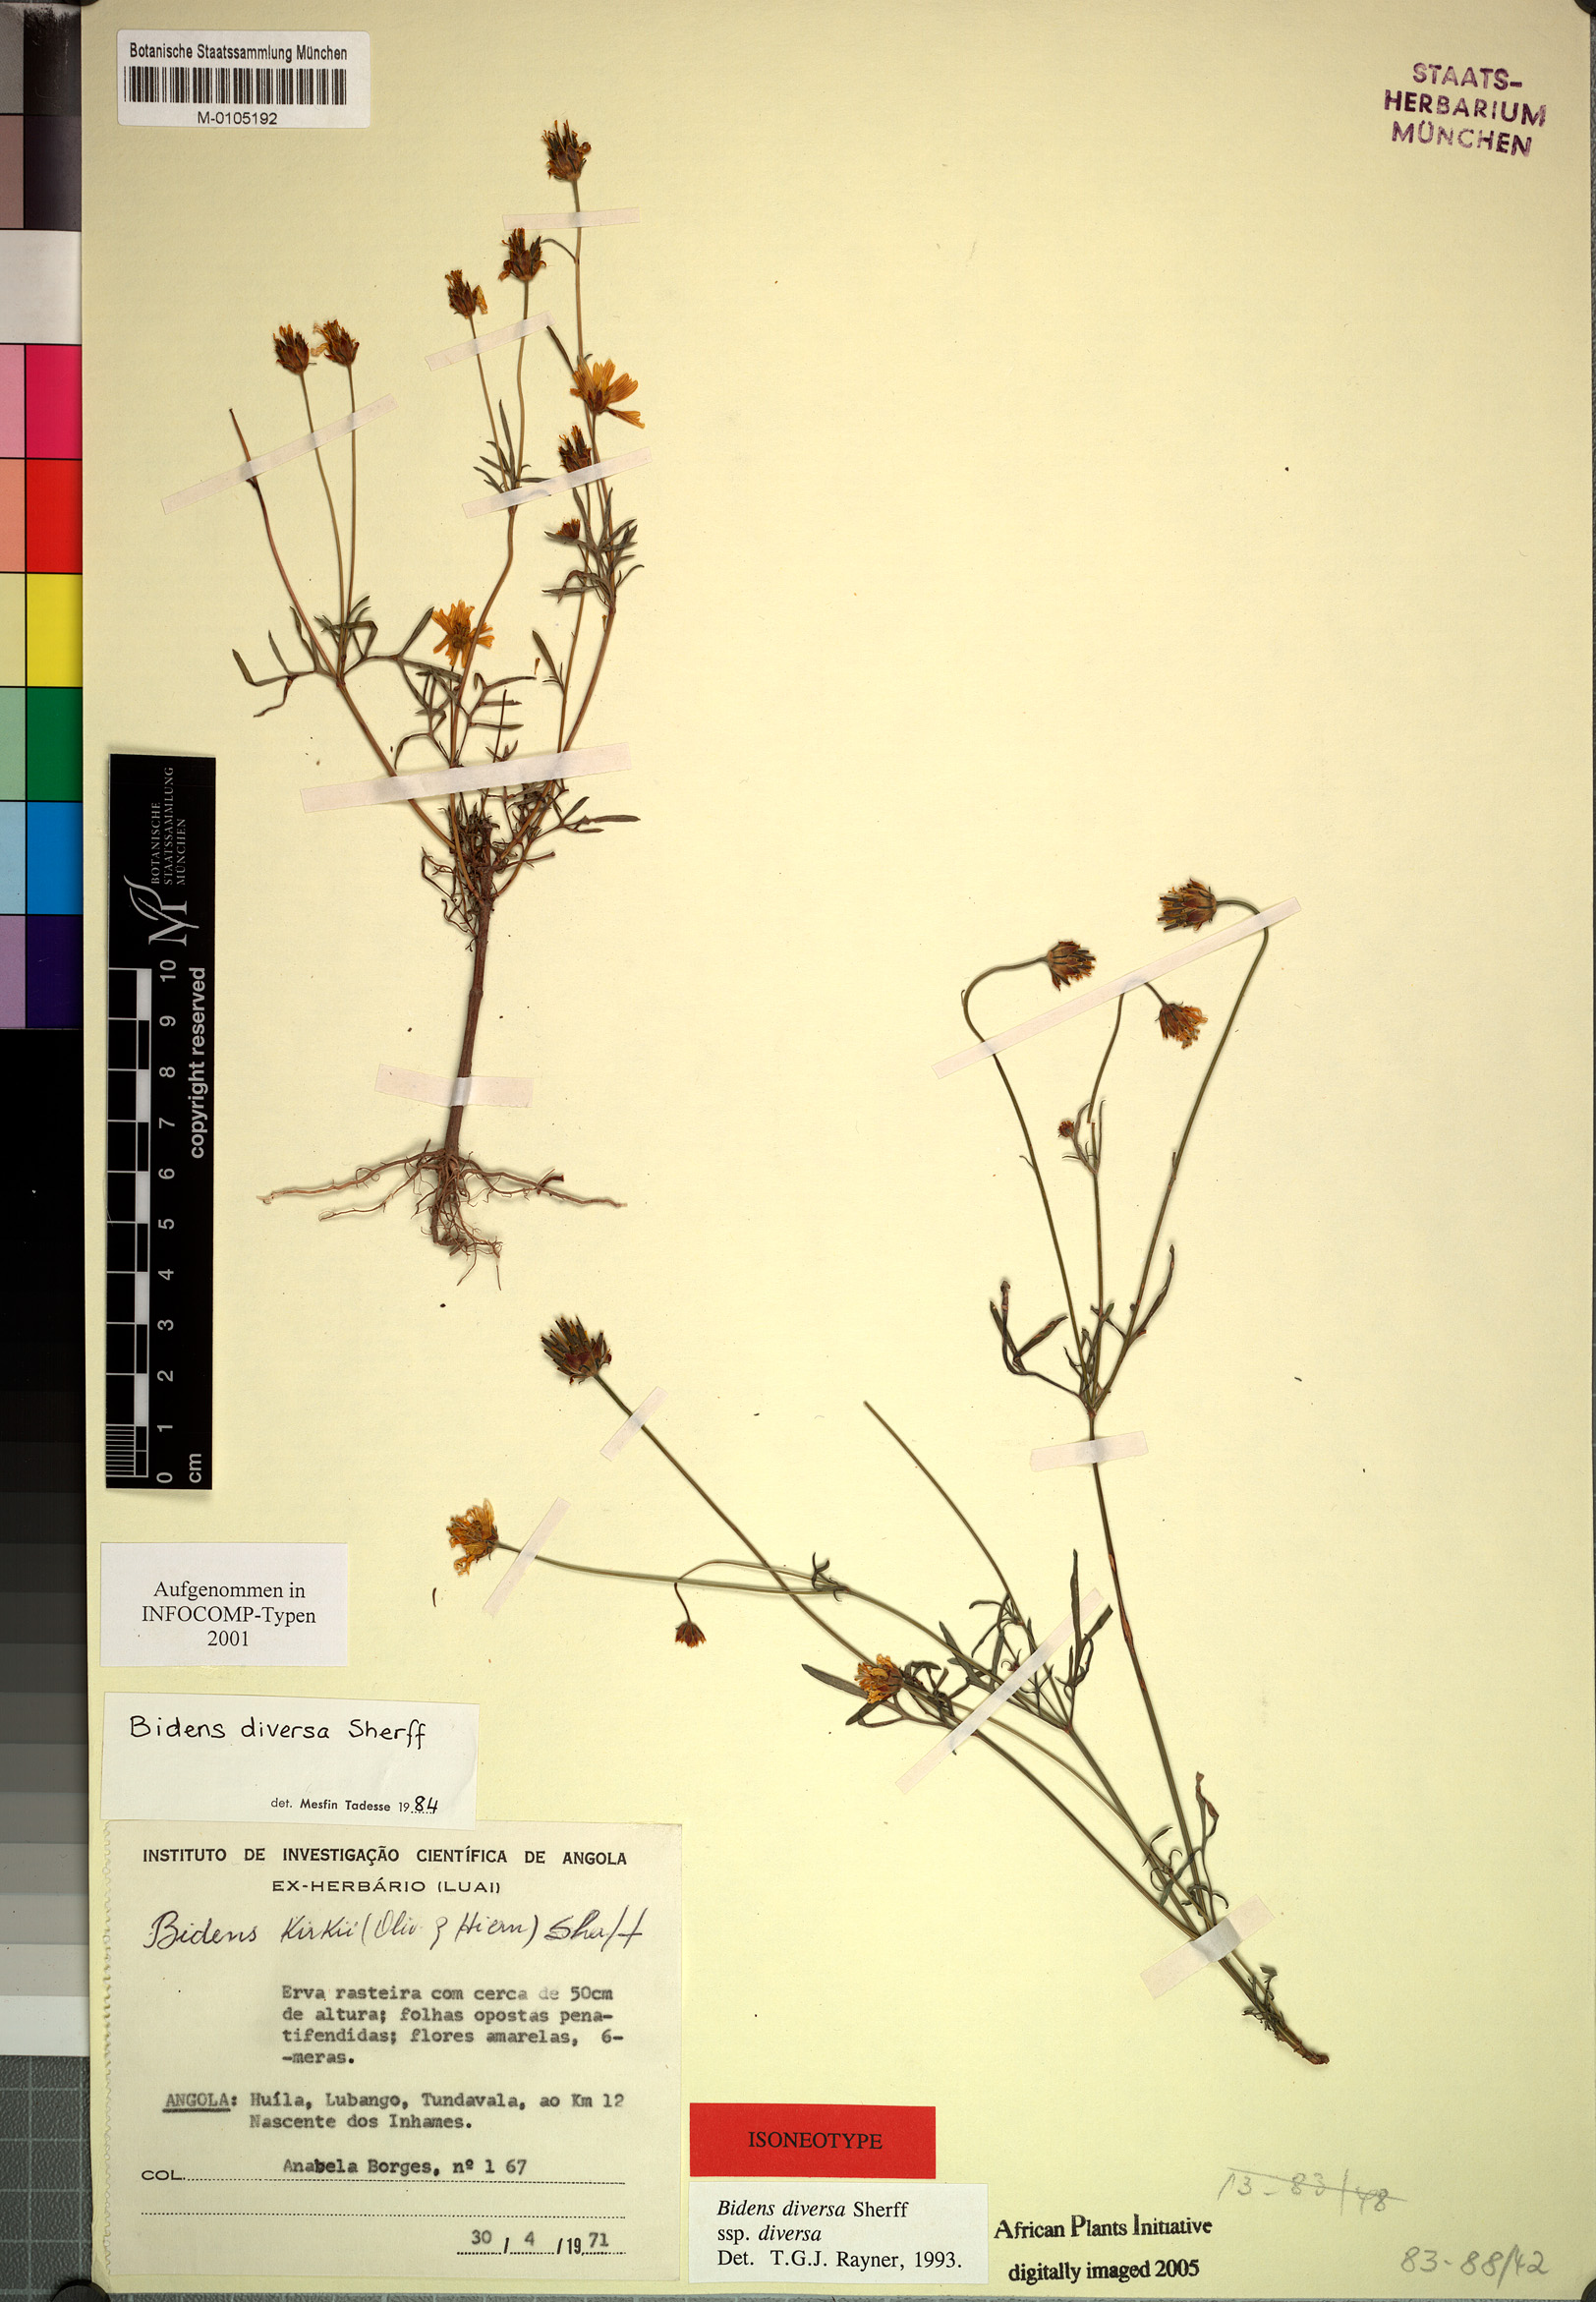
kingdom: Plantae
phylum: Tracheophyta
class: Magnoliopsida
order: Asterales
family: Asteraceae
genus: Bidens
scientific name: Bidens diversa
